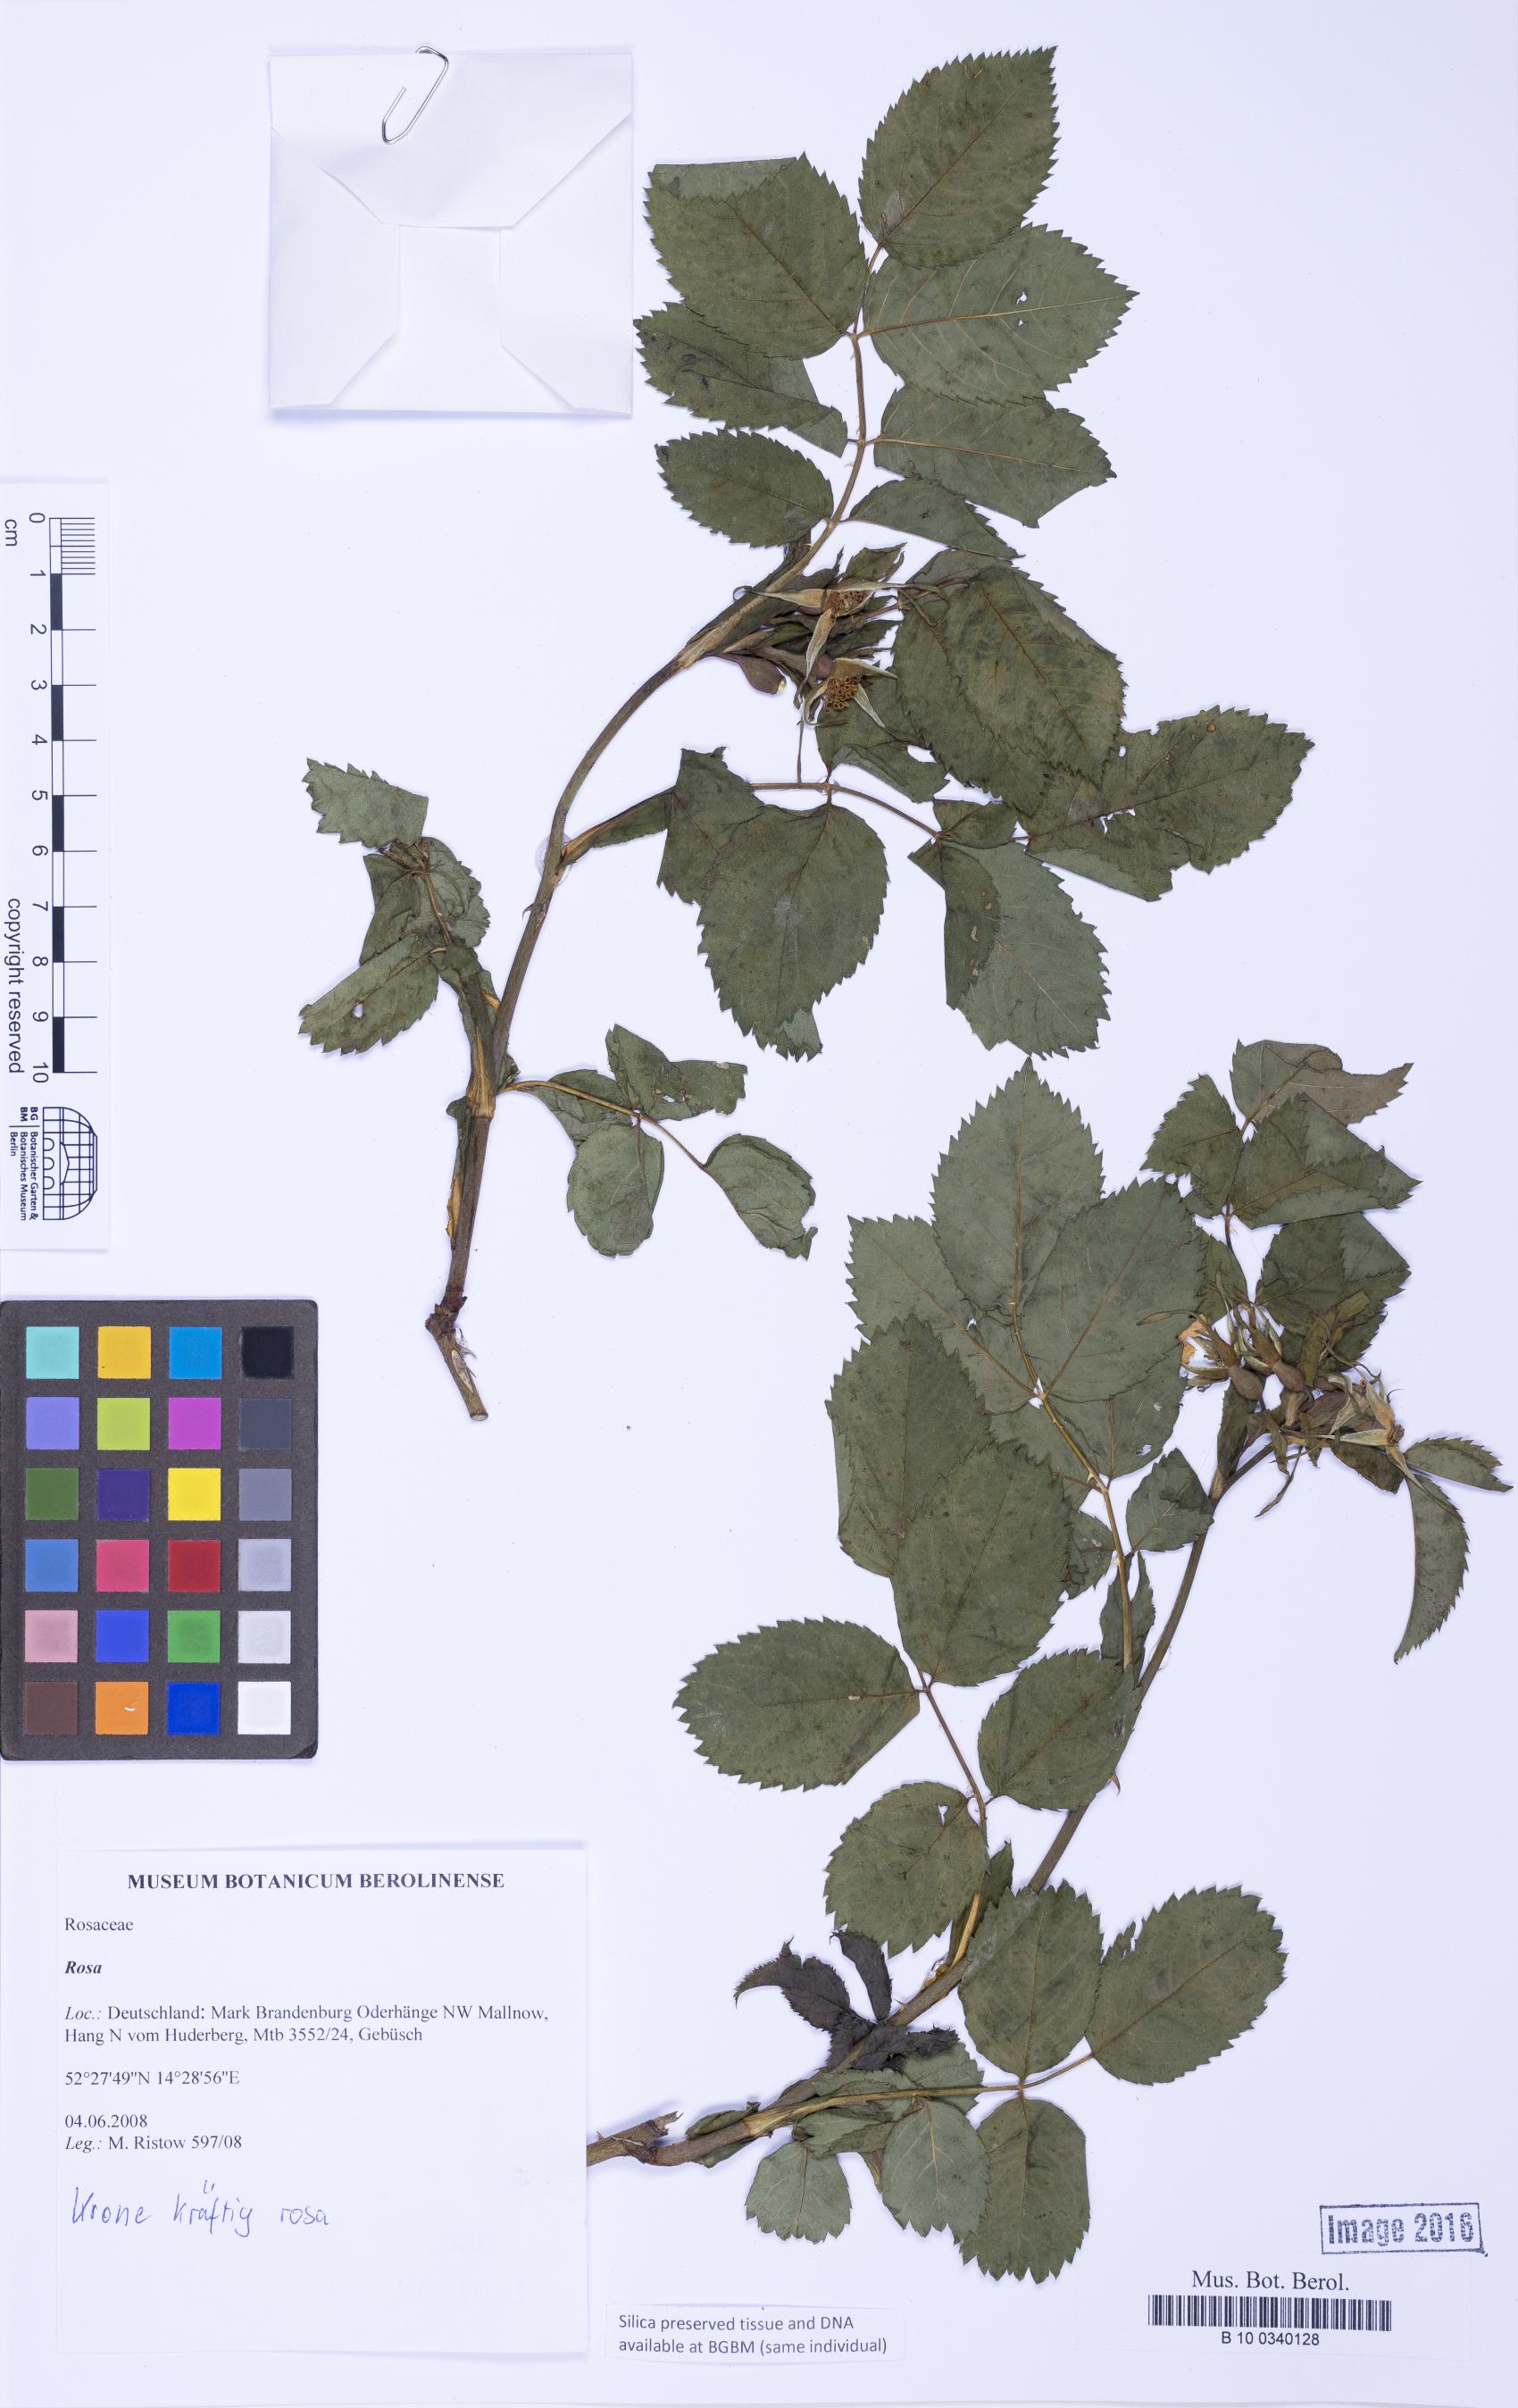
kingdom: Plantae
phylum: Tracheophyta
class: Magnoliopsida
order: Rosales
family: Rosaceae
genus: Rosa
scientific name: Rosa
